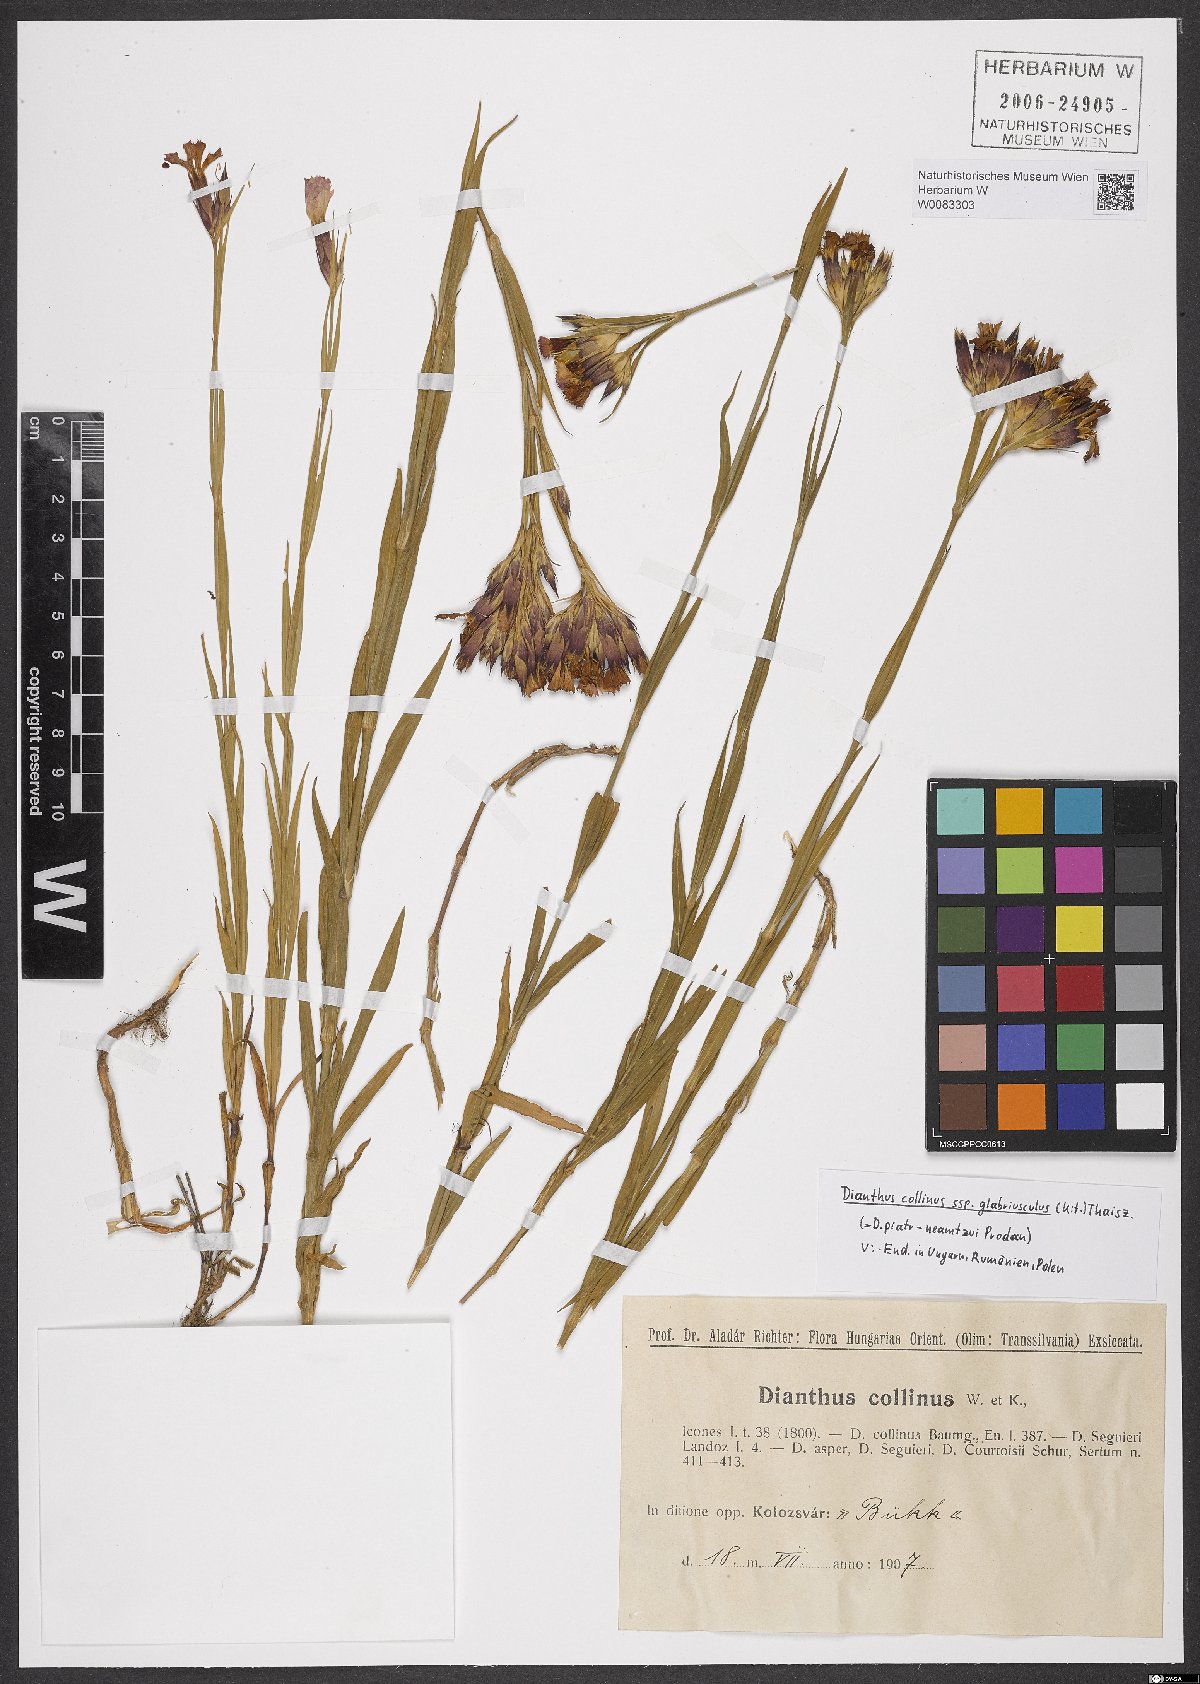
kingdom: Plantae
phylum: Tracheophyta
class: Magnoliopsida
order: Caryophyllales
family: Caryophyllaceae
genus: Dianthus
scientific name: Dianthus collinus
